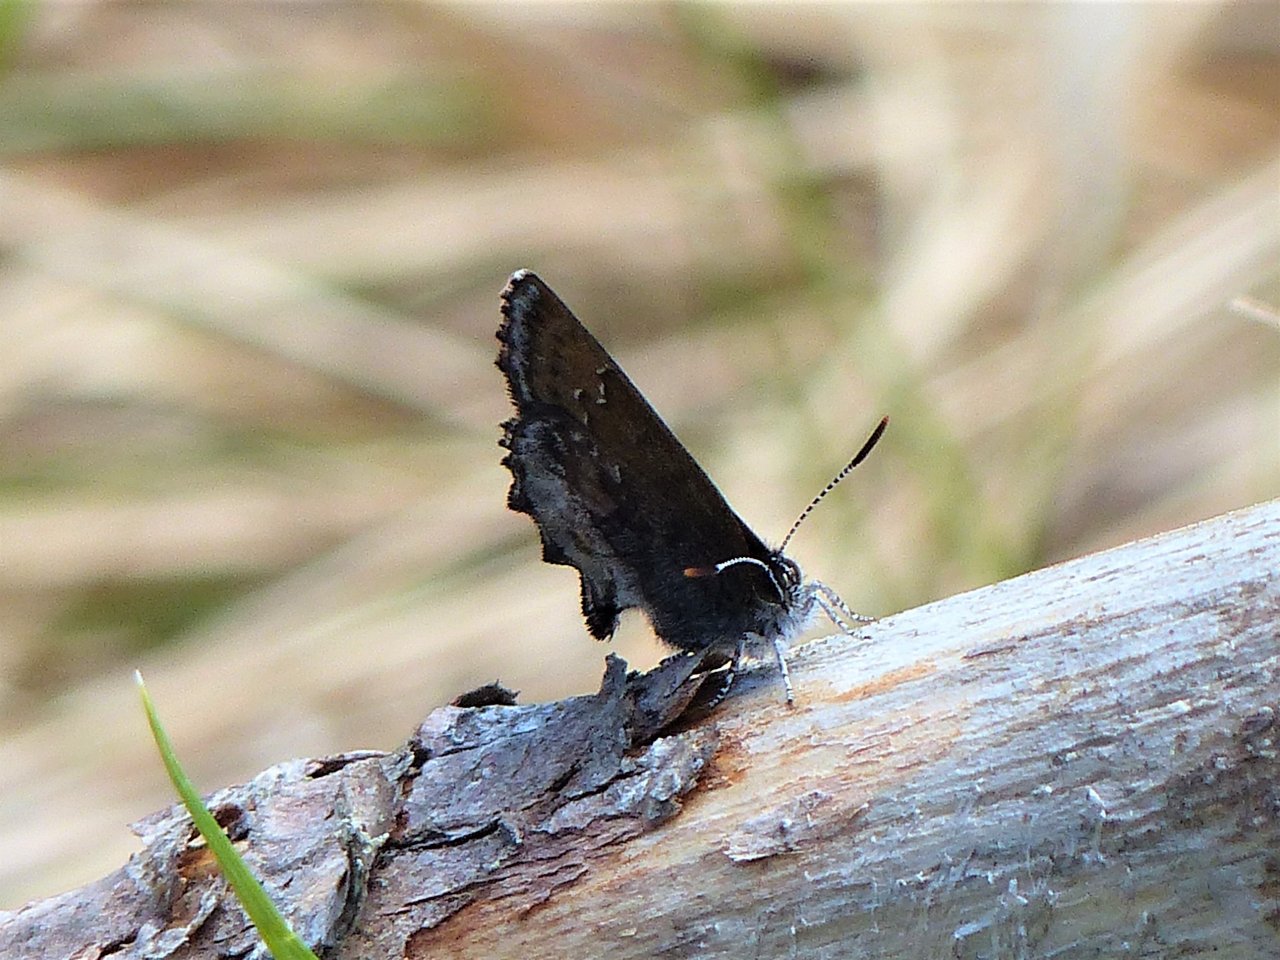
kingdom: Animalia
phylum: Arthropoda
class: Insecta
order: Lepidoptera
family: Lycaenidae
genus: Callophrys
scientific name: Callophrys polios
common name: Hoary Elfin
